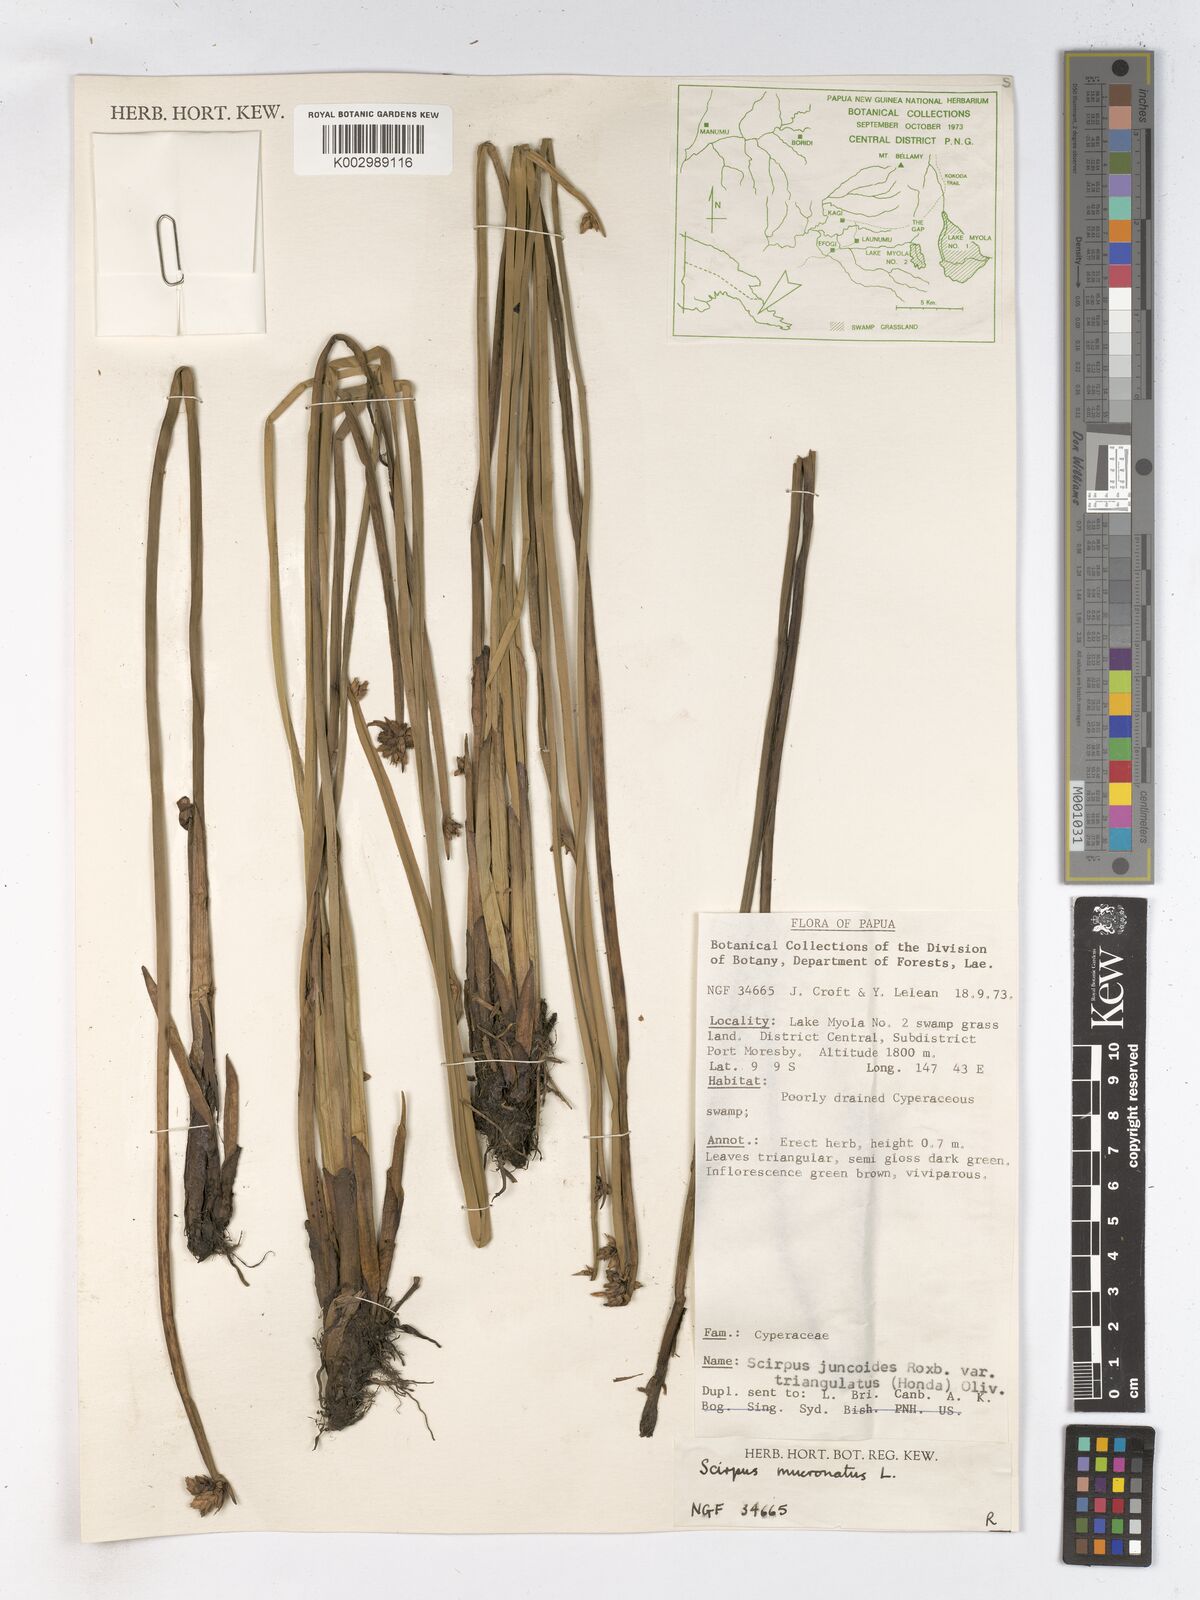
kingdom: Plantae
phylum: Tracheophyta
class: Liliopsida
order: Poales
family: Cyperaceae
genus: Schoenoplectiella
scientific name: Schoenoplectiella mucronata
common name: Bog bulrush
